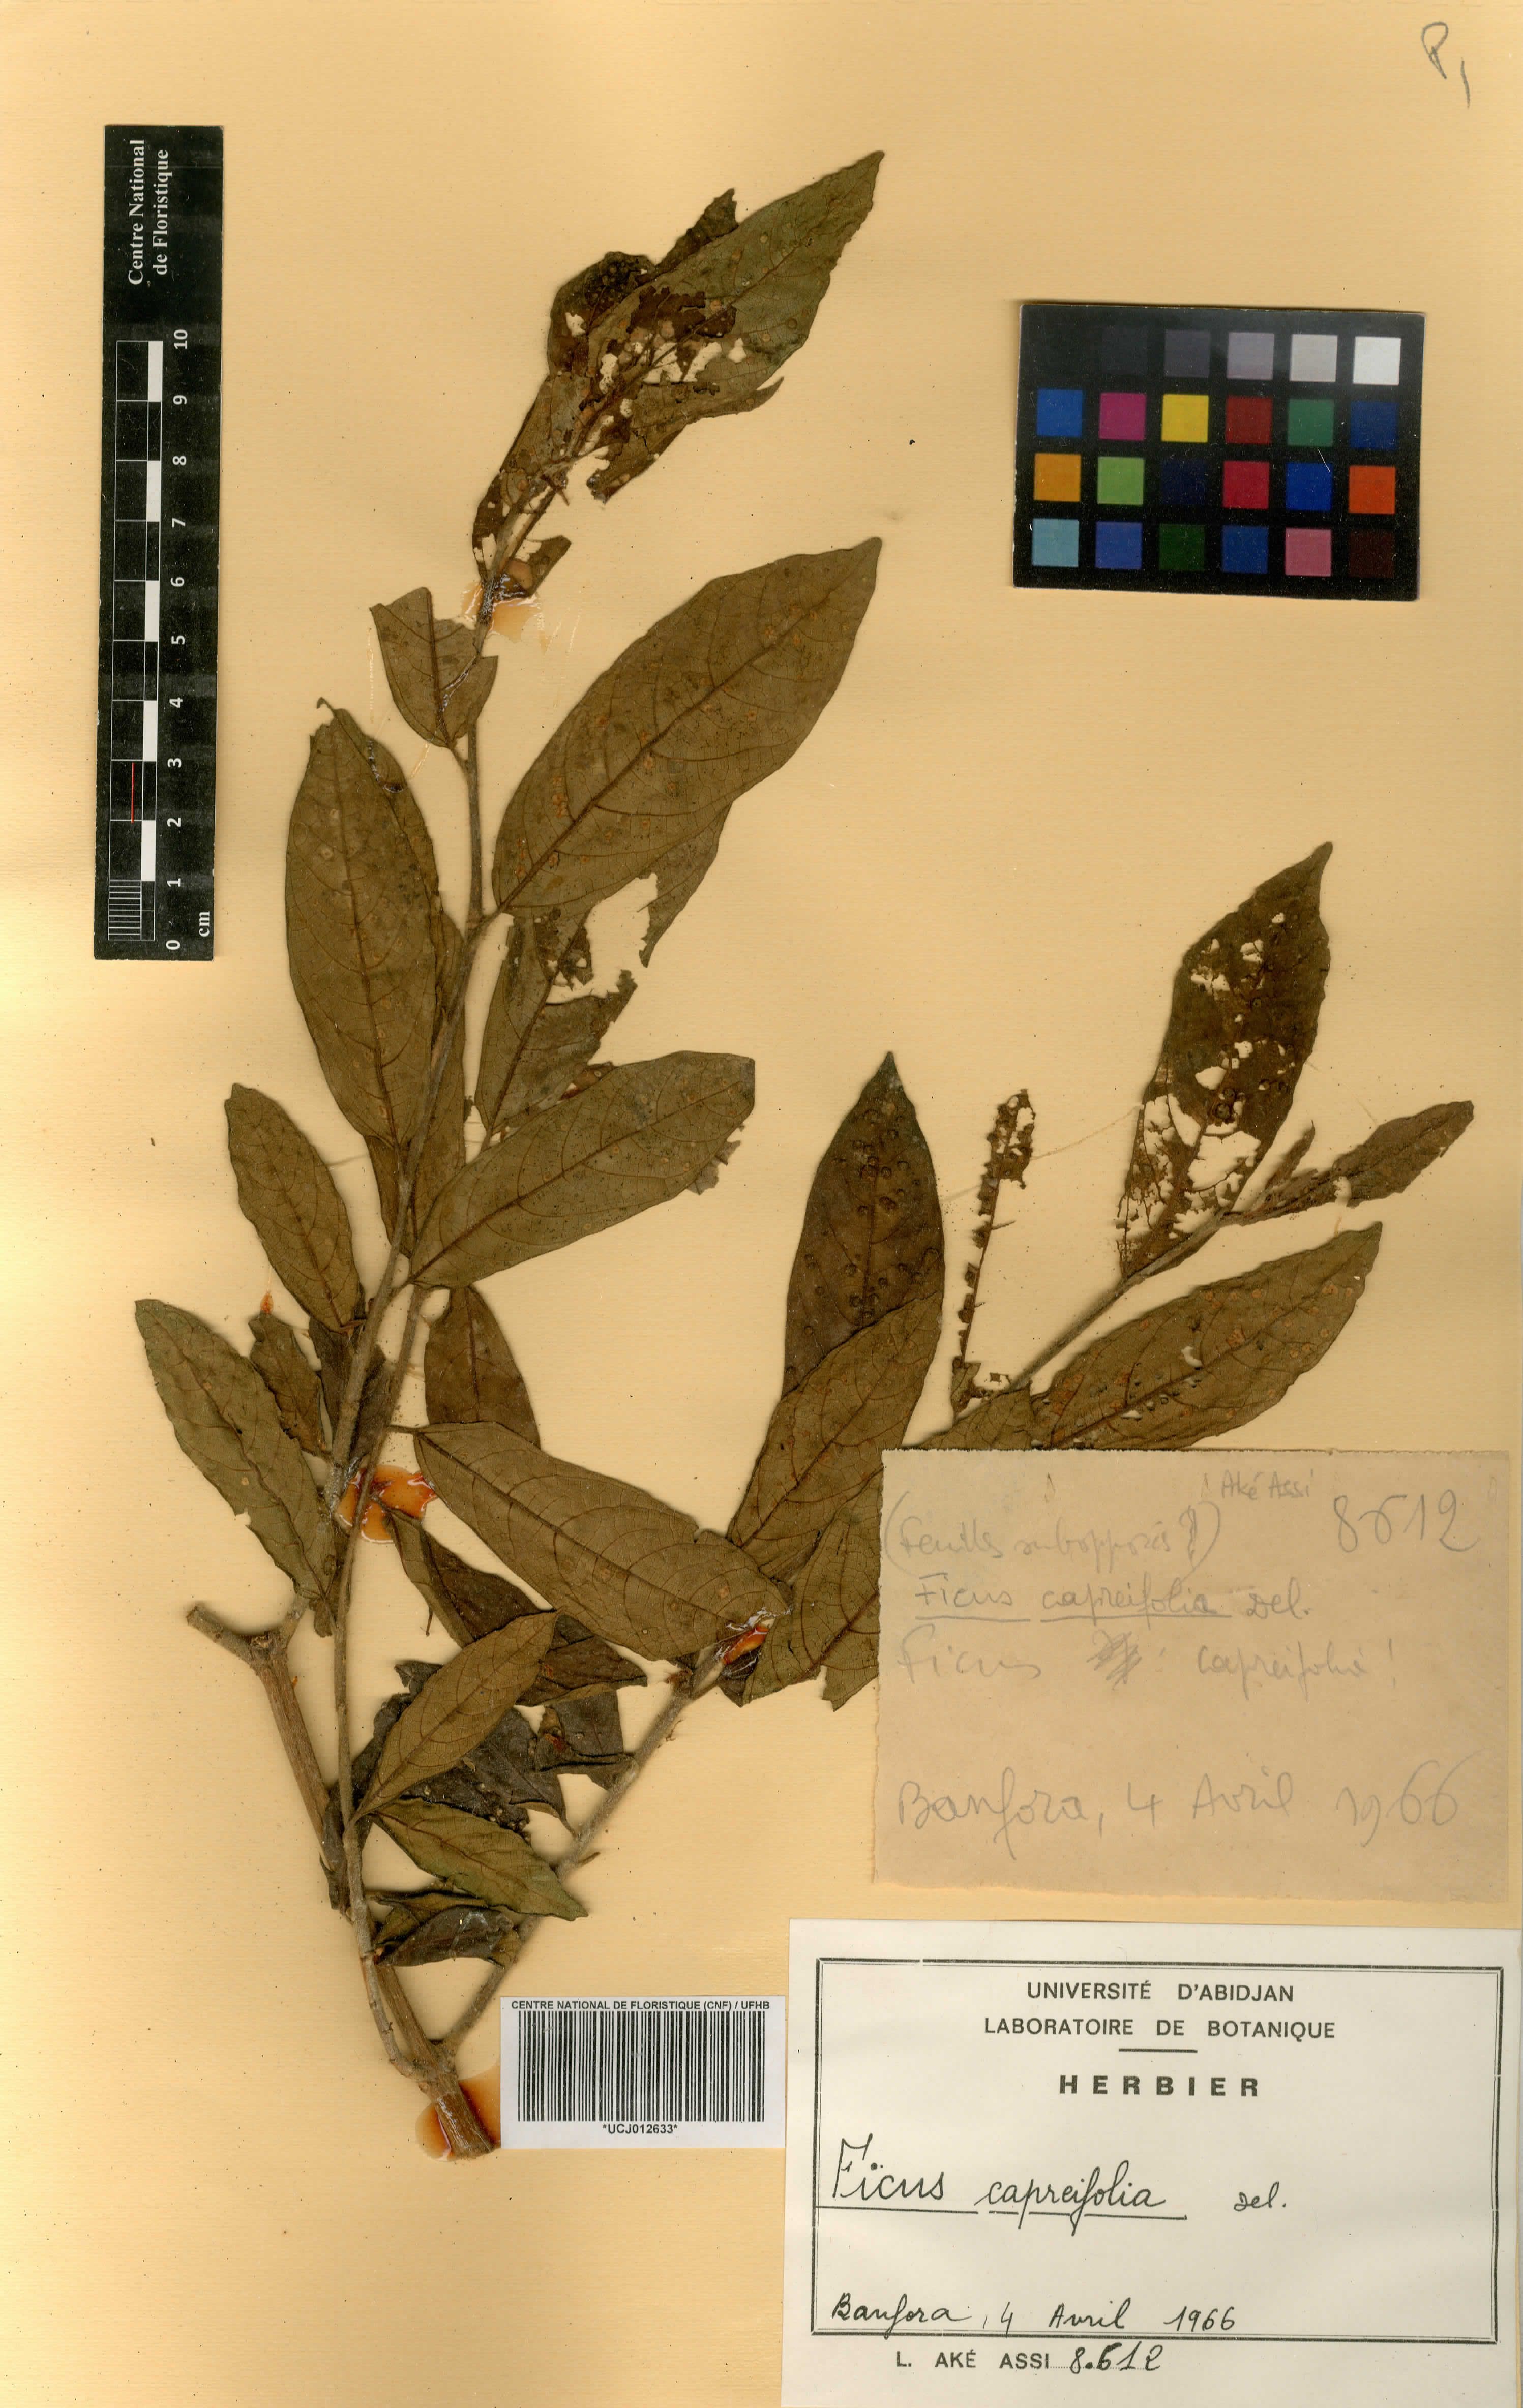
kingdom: Plantae
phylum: Tracheophyta
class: Magnoliopsida
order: Rosales
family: Moraceae
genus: Ficus
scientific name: Ficus capreifolia
